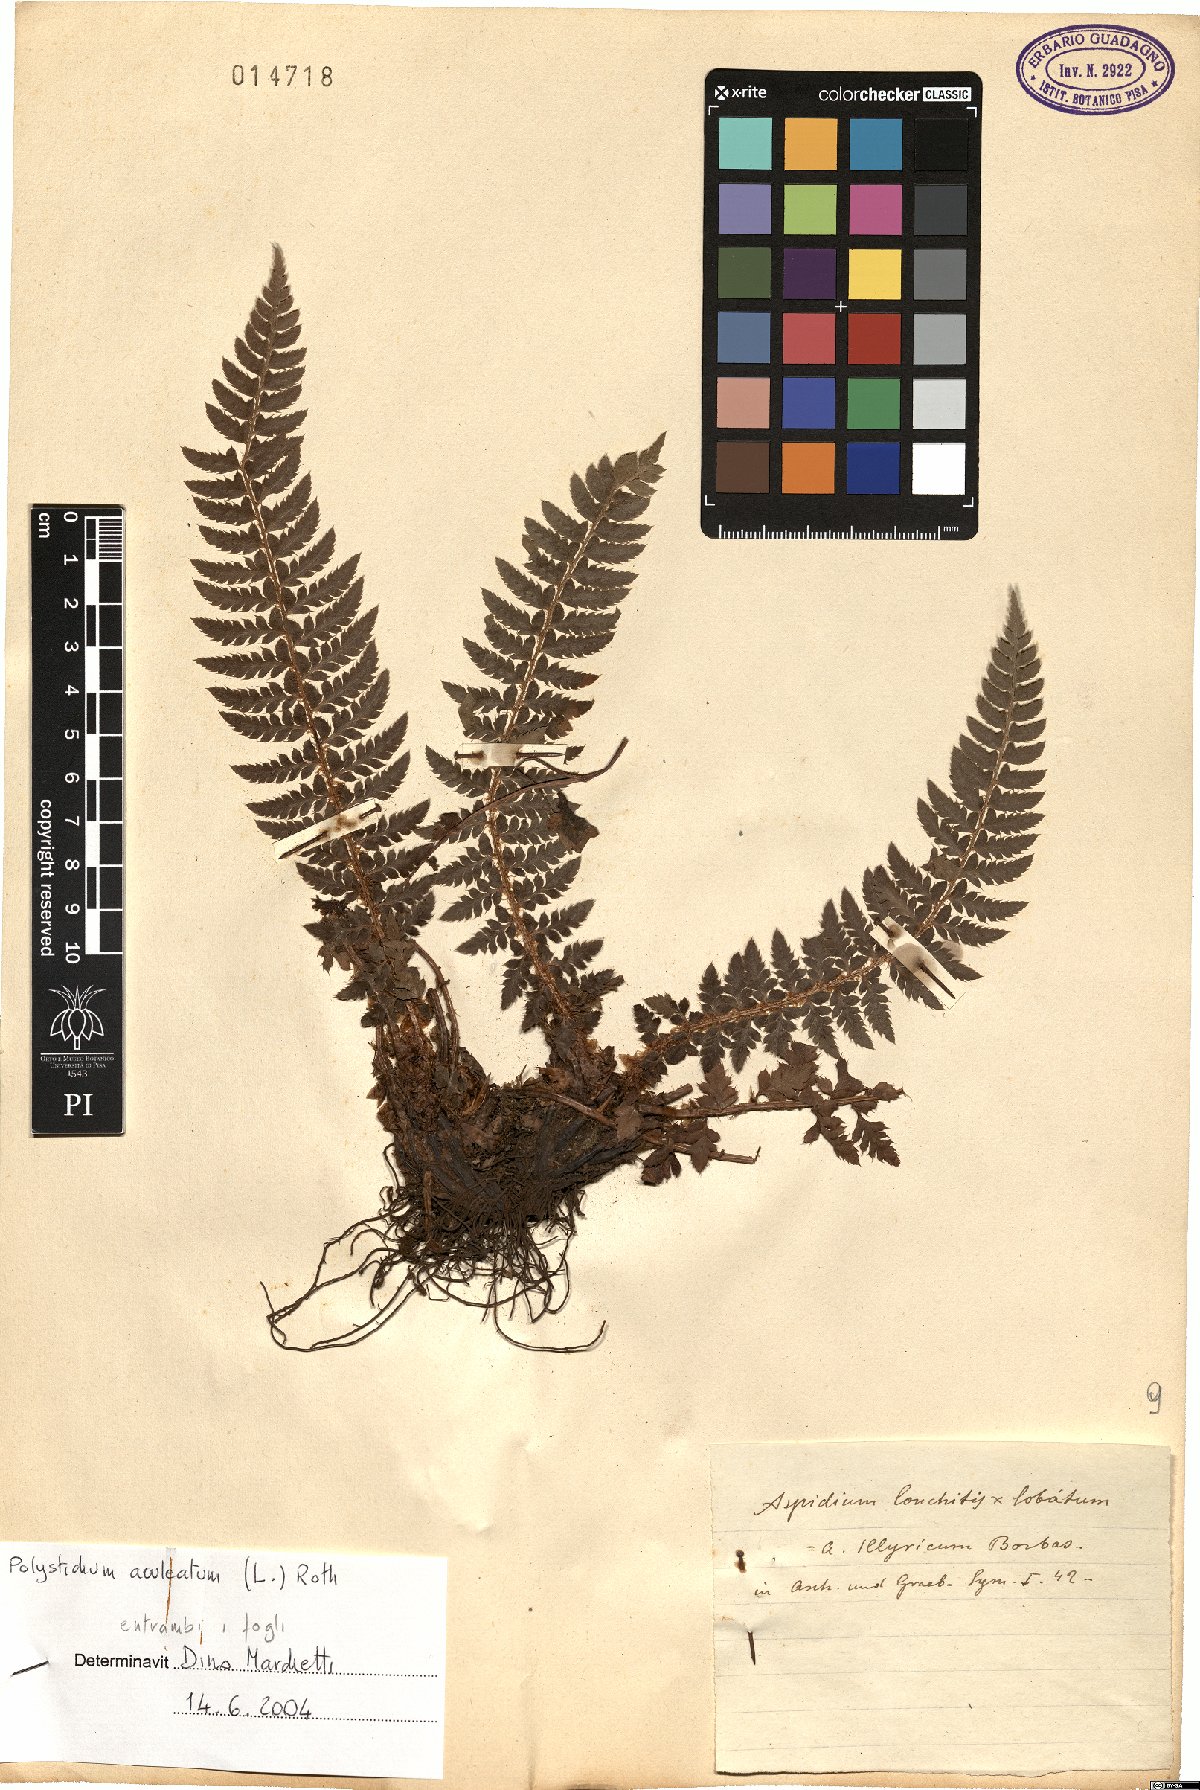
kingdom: Plantae
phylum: Tracheophyta
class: Polypodiopsida
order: Polypodiales
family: Dryopteridaceae
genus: Polystichum
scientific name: Polystichum aculeatum
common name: Hard shield-fern
